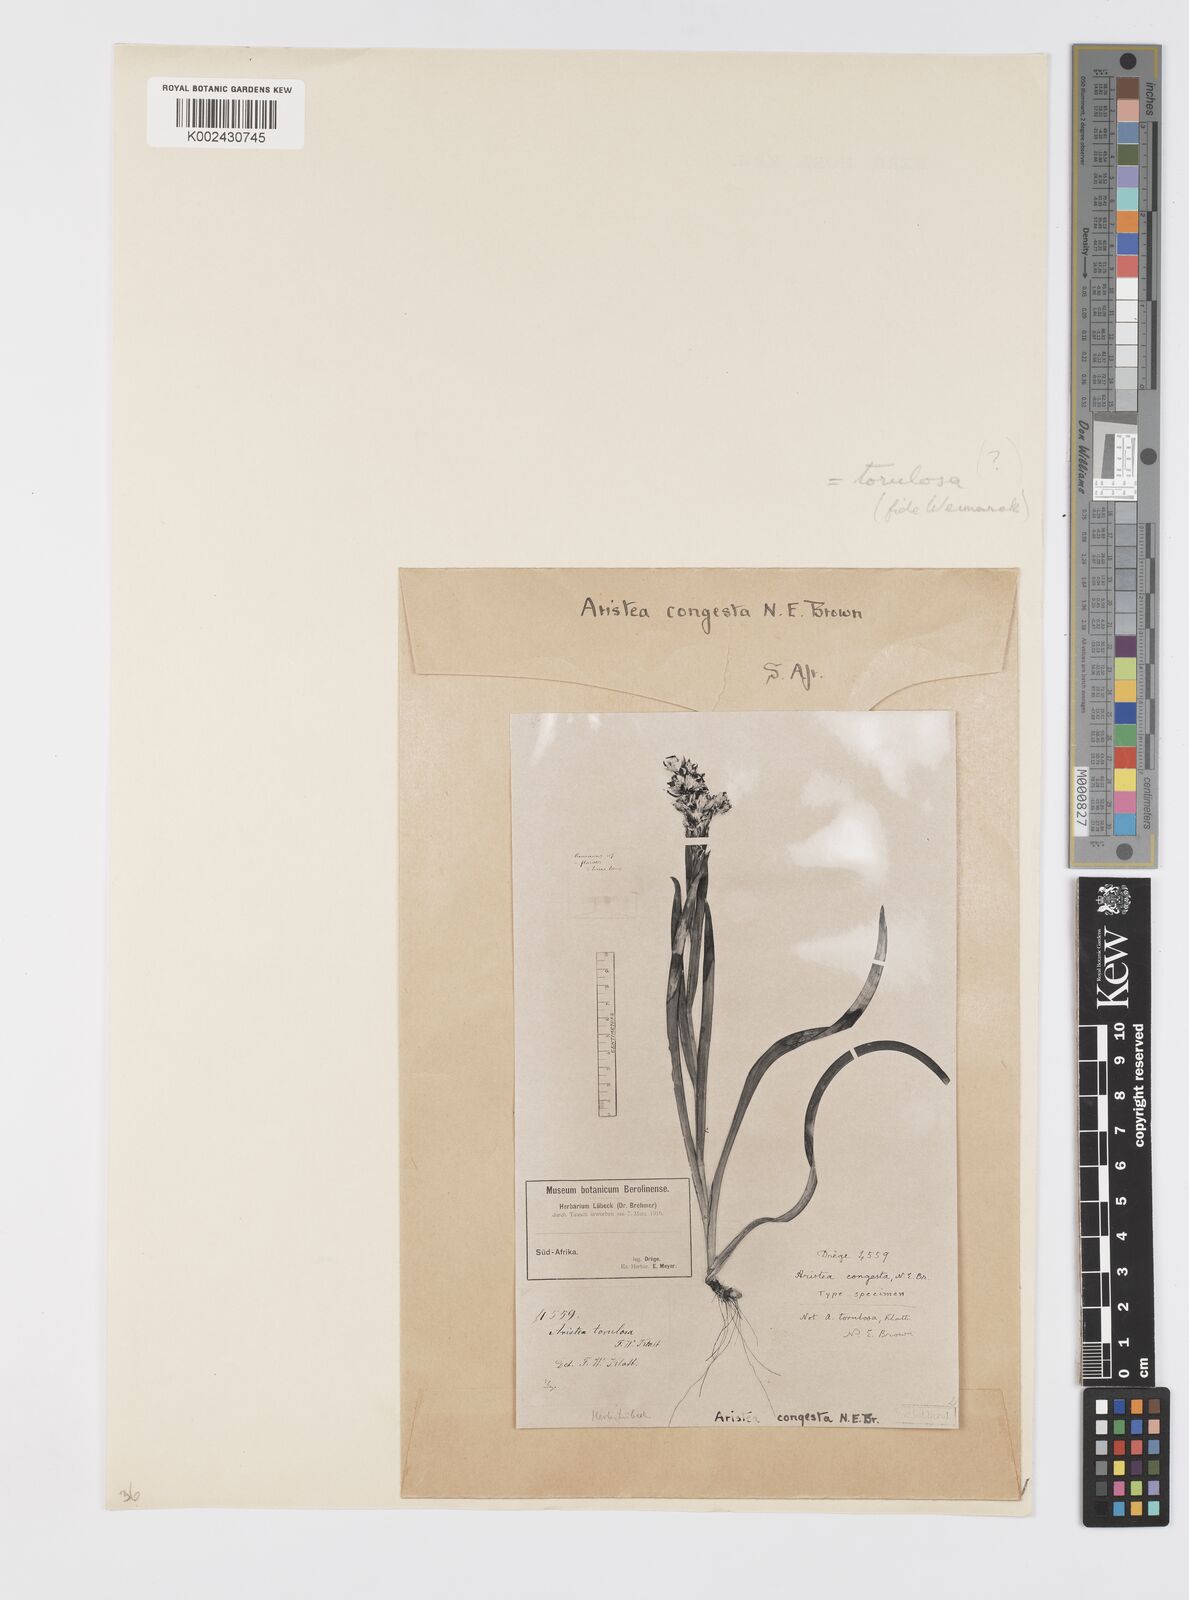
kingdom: Plantae
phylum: Tracheophyta
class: Liliopsida
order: Asparagales
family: Iridaceae
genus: Aristea
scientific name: Aristea torulosa
